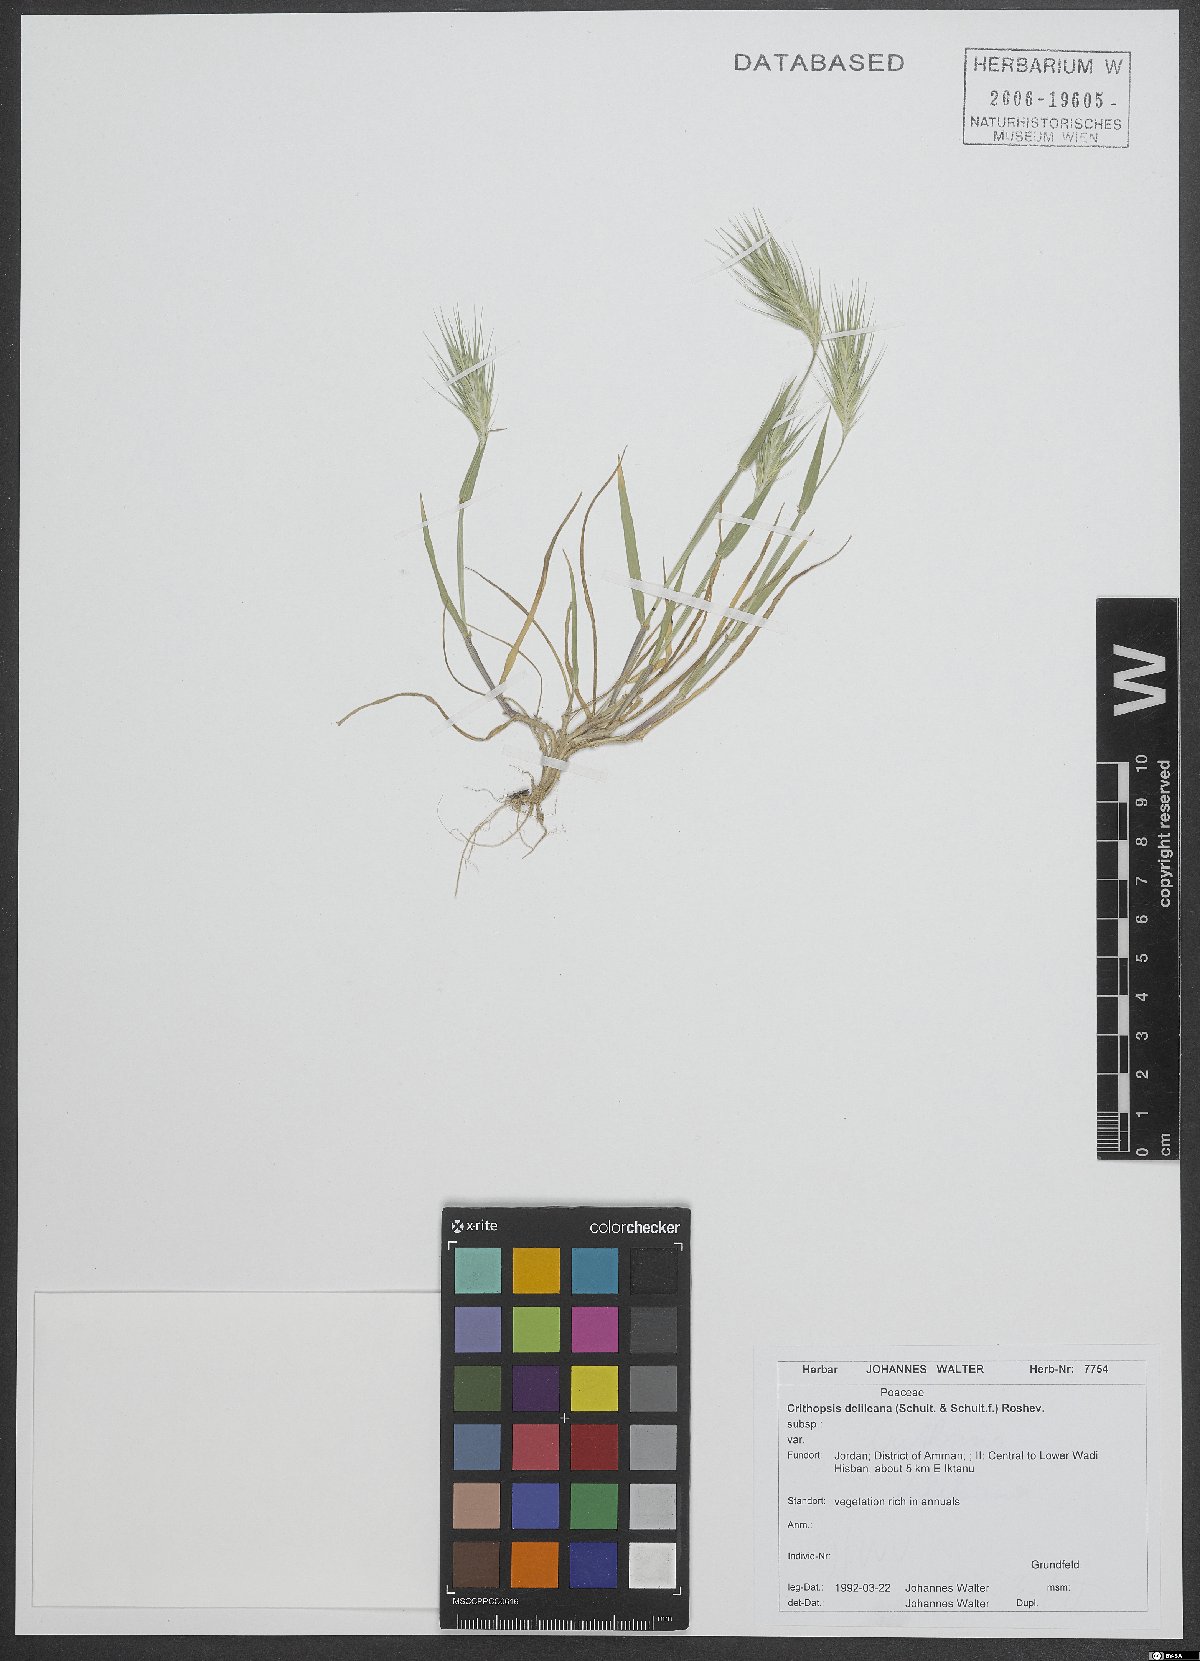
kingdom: Plantae
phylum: Tracheophyta
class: Liliopsida
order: Poales
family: Poaceae
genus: Crithopsis
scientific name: Crithopsis delileana
